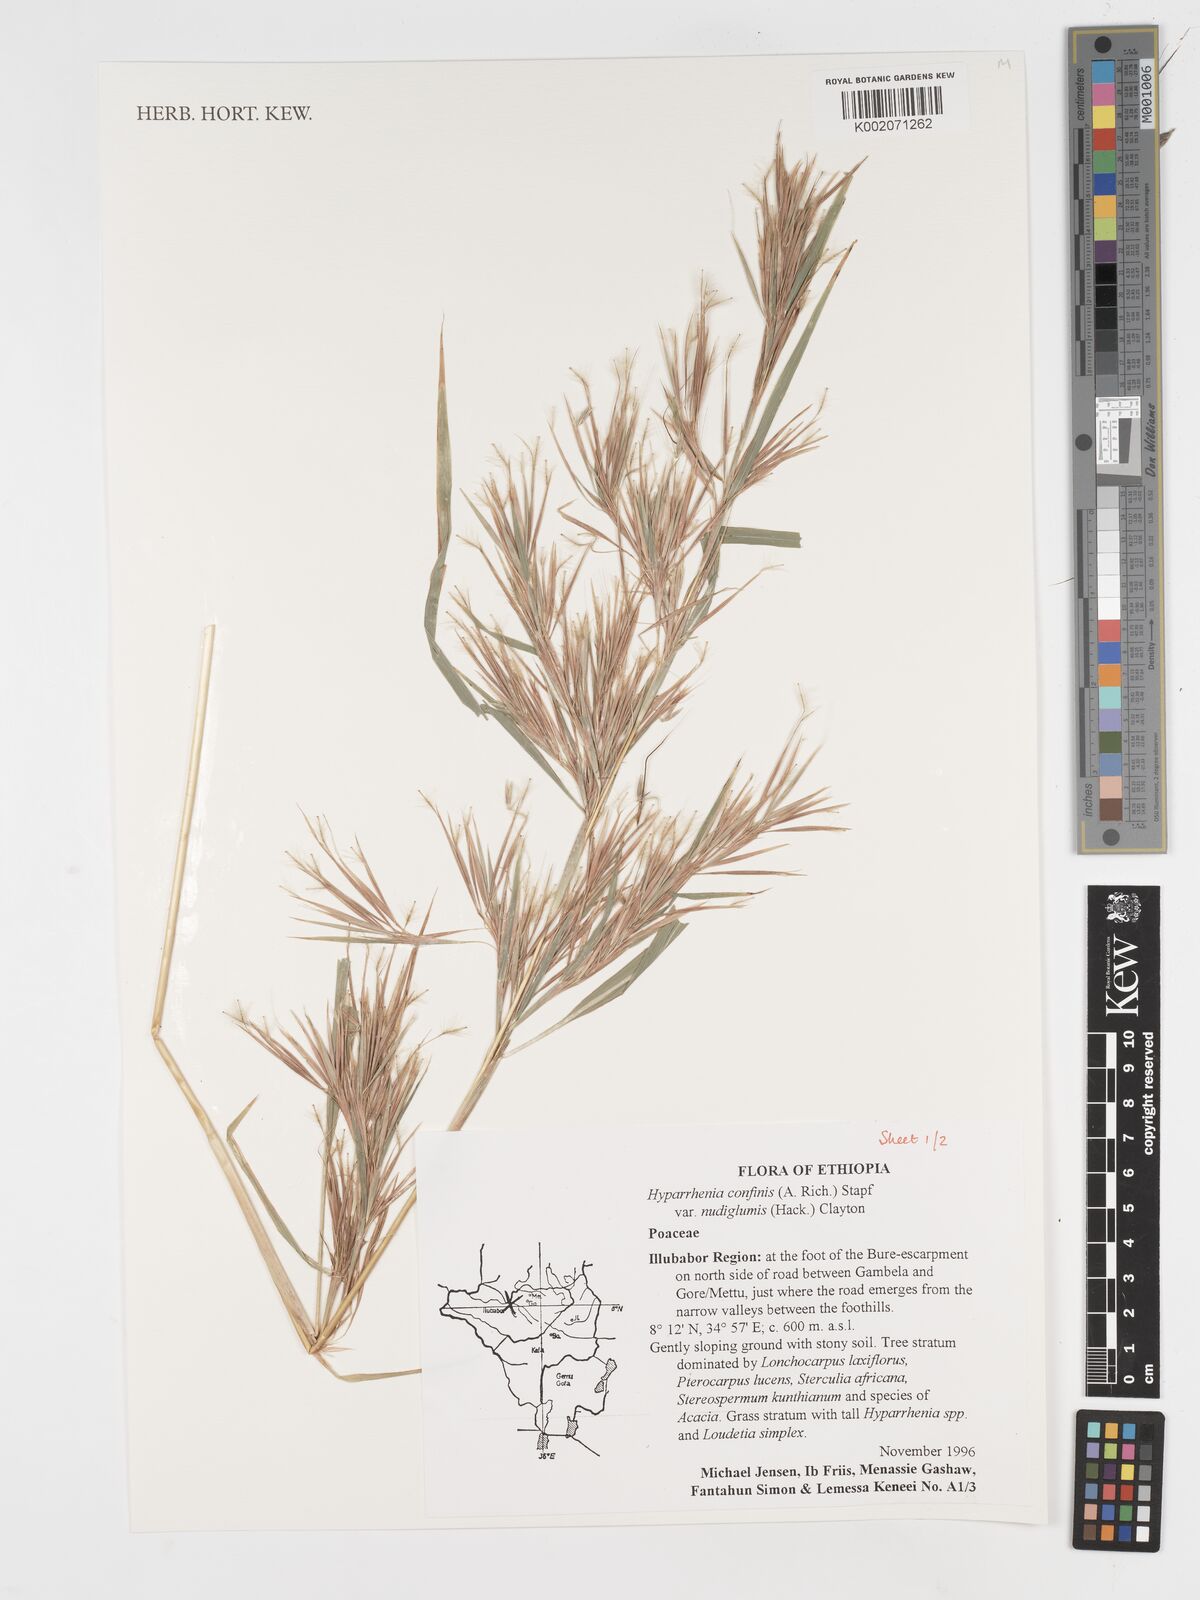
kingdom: Plantae
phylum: Tracheophyta
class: Liliopsida
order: Poales
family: Poaceae
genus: Hyparrhenia
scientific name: Hyparrhenia confinis
